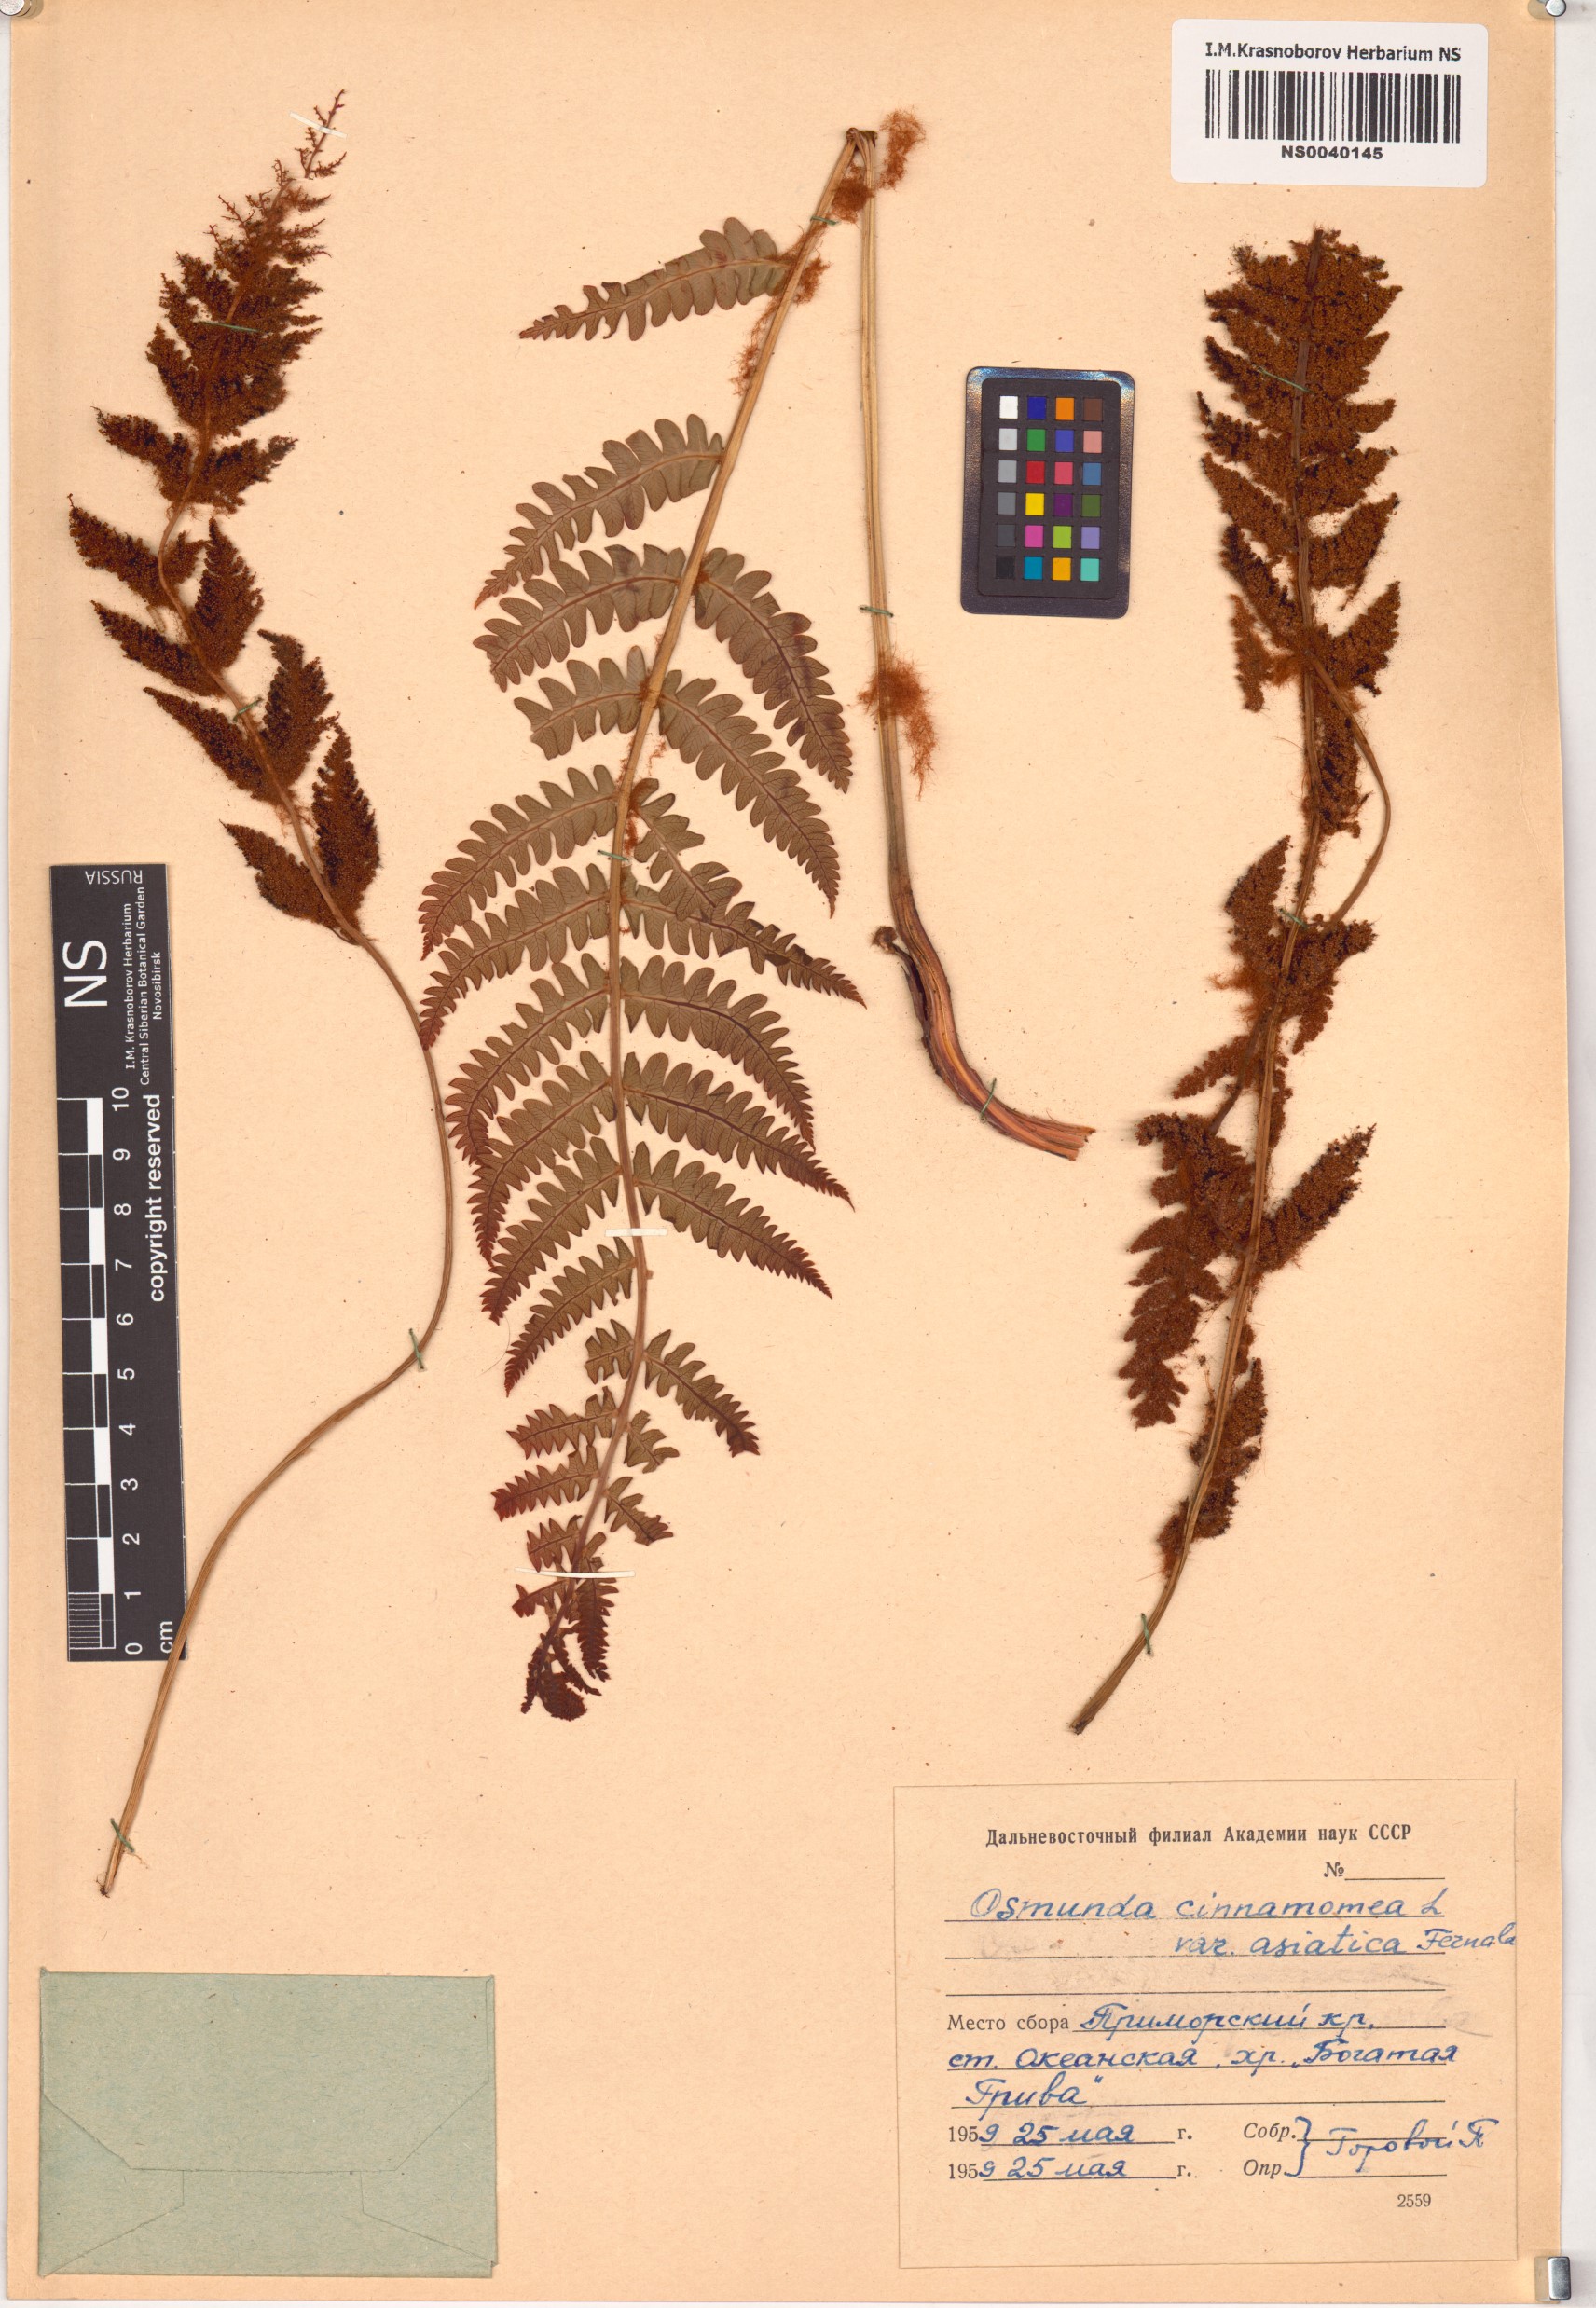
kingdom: Plantae
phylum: Tracheophyta
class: Polypodiopsida
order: Osmundales
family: Osmundaceae
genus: Osmundastrum
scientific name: Osmundastrum cinnamomeum
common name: Cinnamon fern
